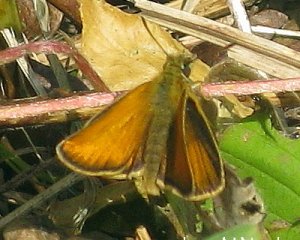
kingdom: Animalia
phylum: Arthropoda
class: Insecta
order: Lepidoptera
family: Hesperiidae
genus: Thymelicus
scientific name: Thymelicus lineola
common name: European Skipper
